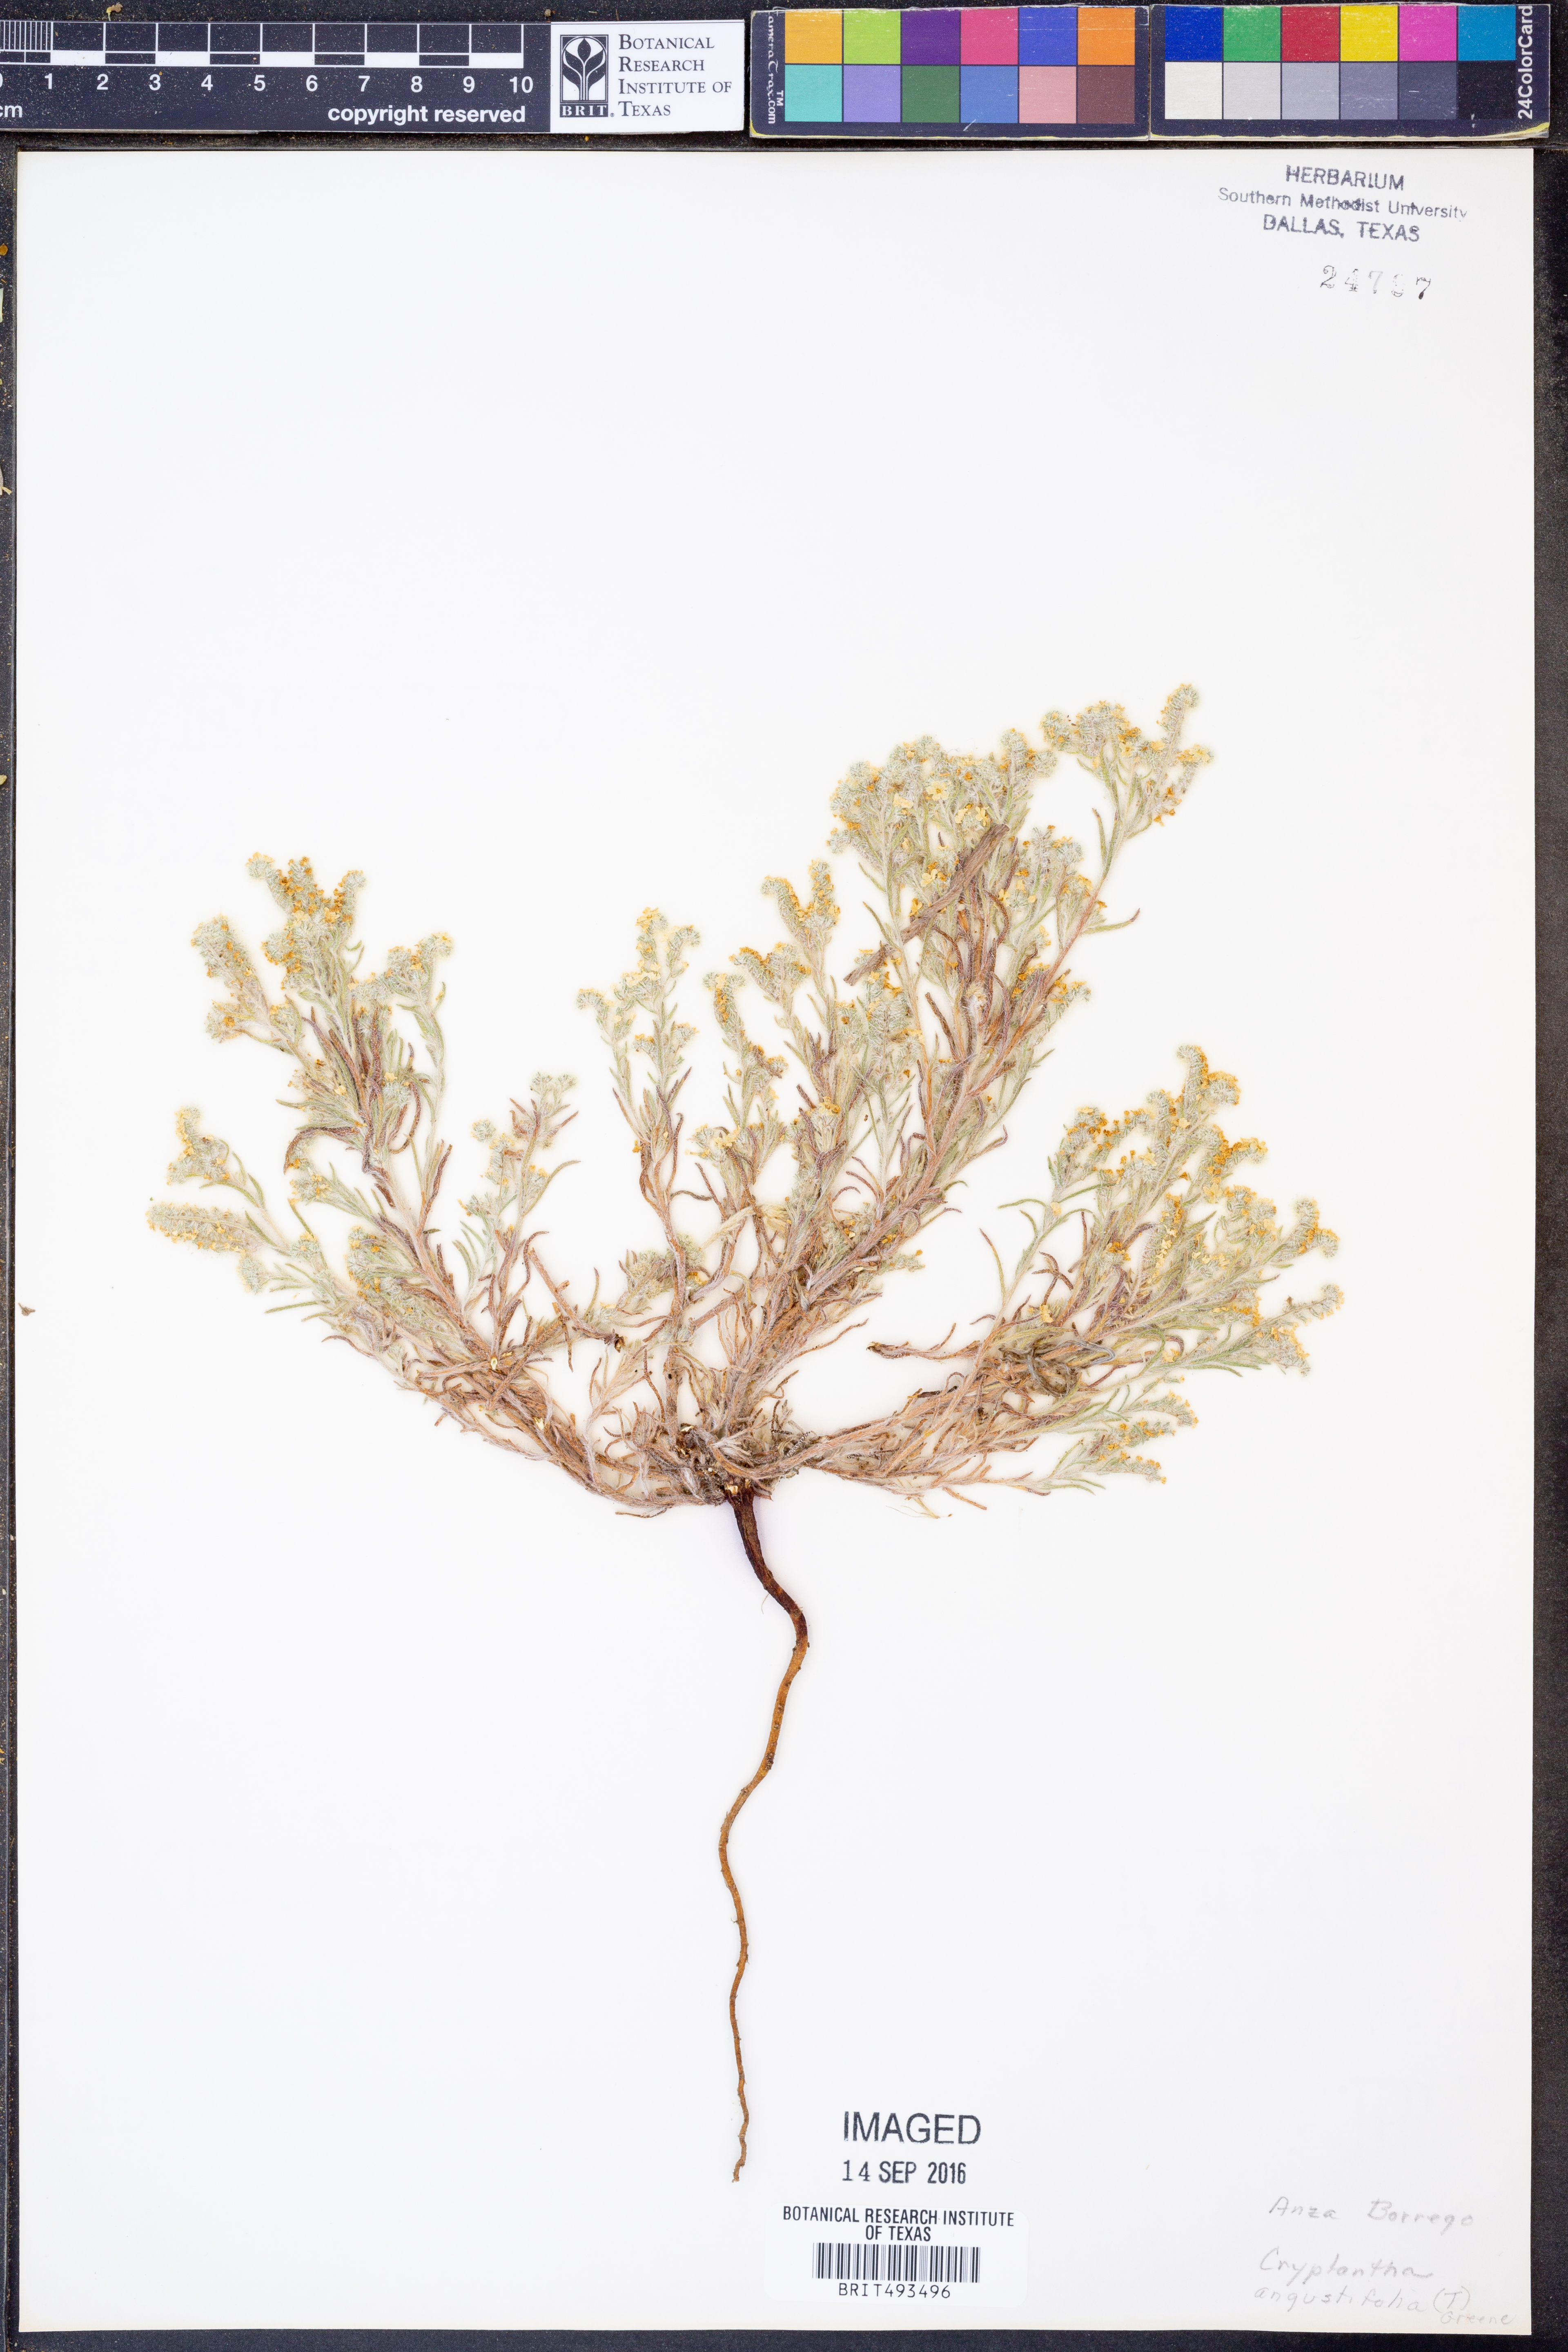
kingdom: Plantae
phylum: Tracheophyta
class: Magnoliopsida
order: Boraginales
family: Boraginaceae
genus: Johnstonella
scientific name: Johnstonella angustifolia
